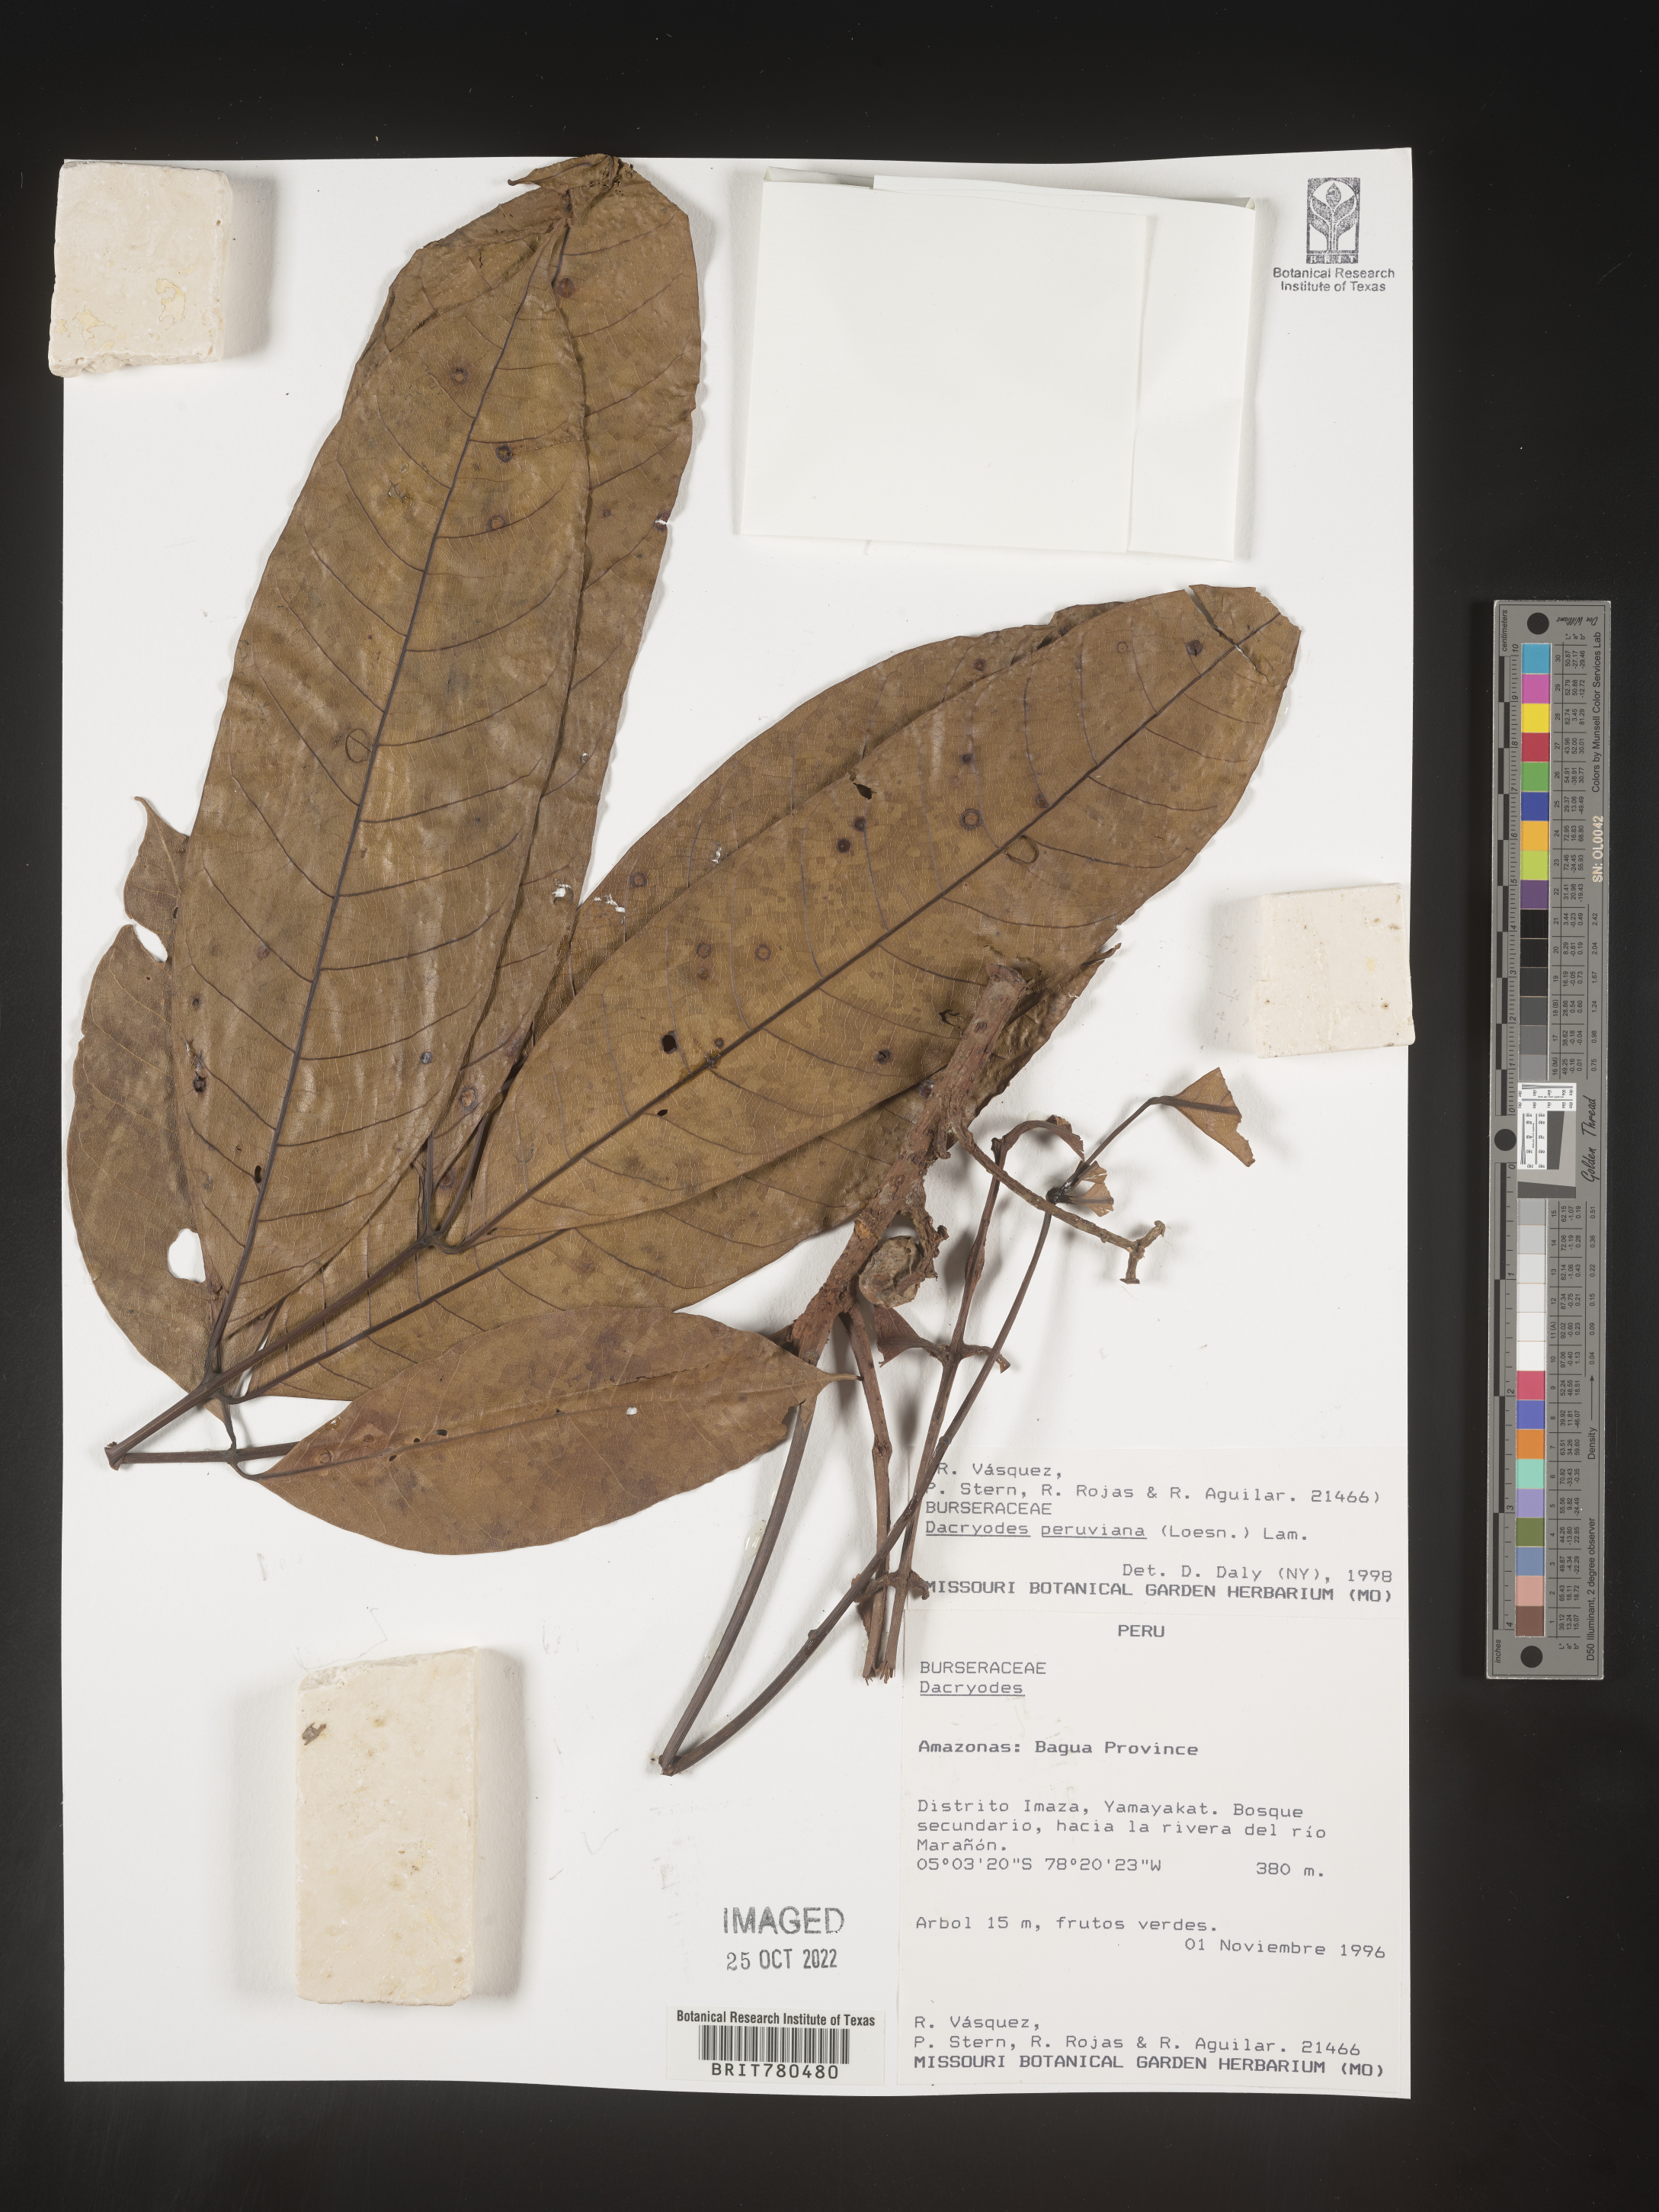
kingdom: Plantae
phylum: Tracheophyta
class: Magnoliopsida
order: Sapindales
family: Burseraceae
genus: Dacryodes
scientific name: Dacryodes
